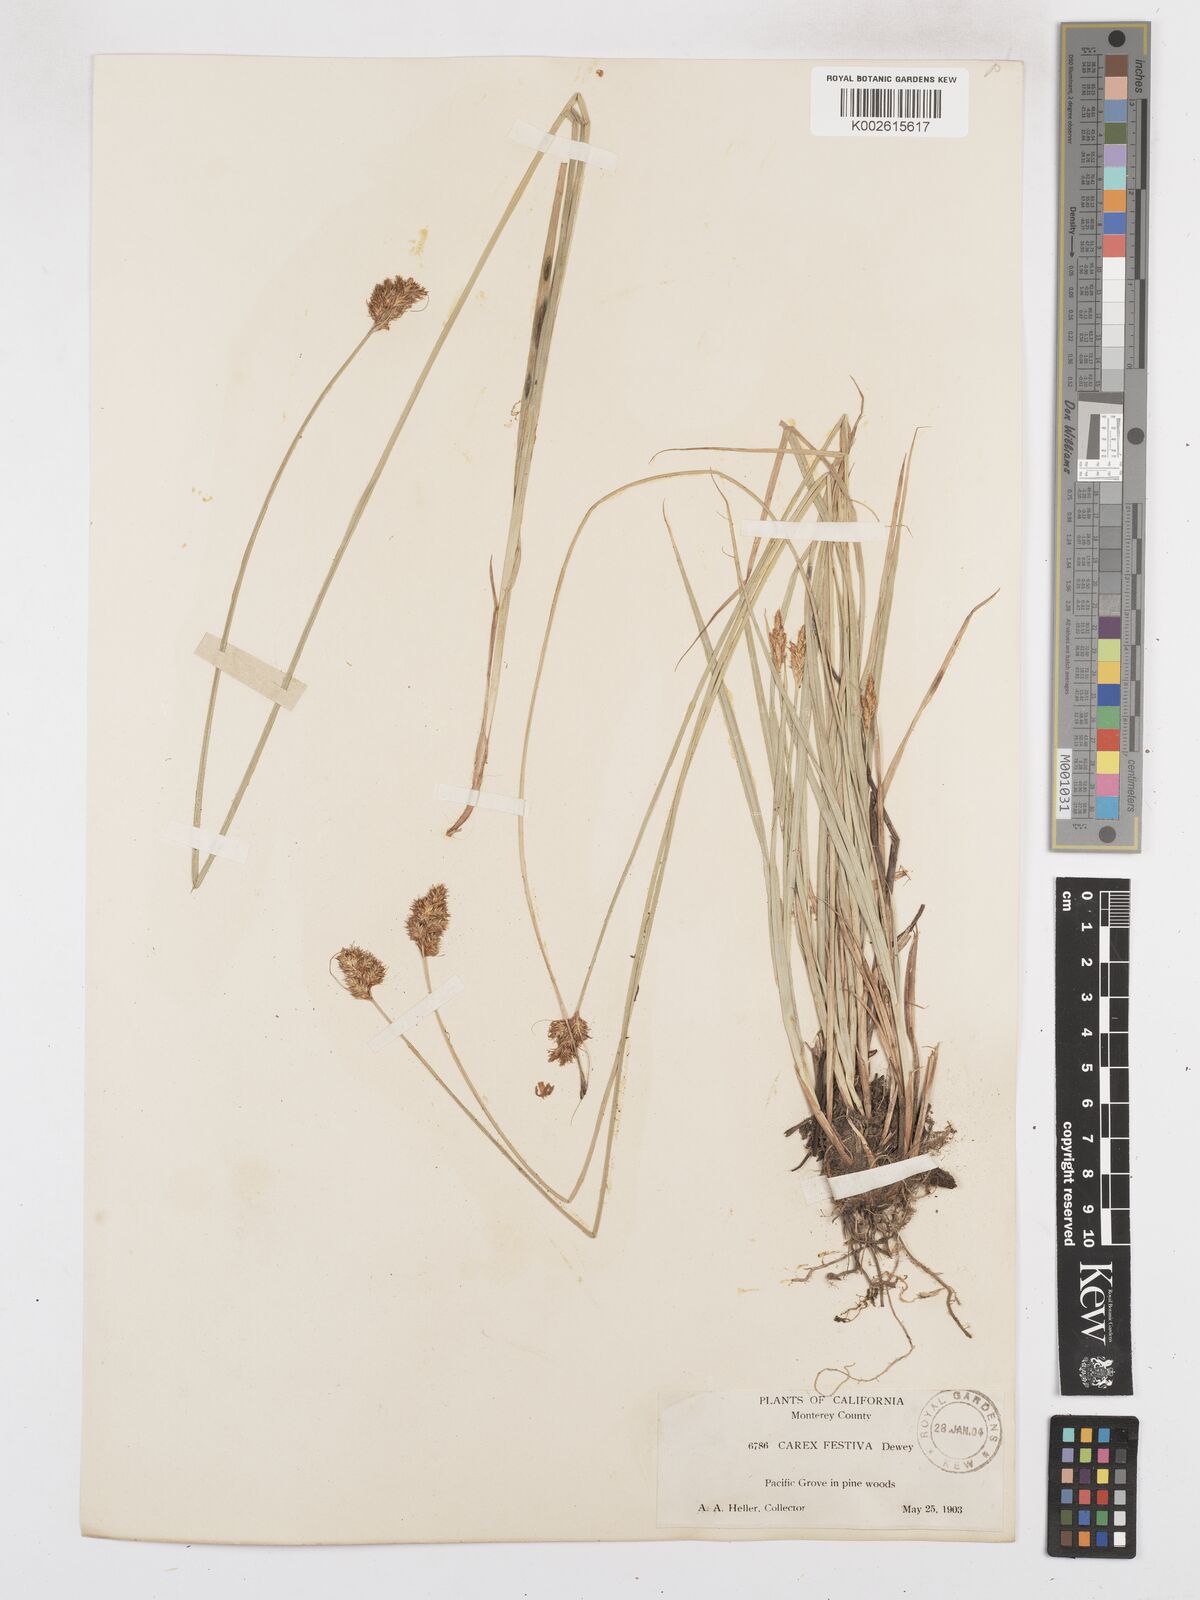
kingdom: Plantae
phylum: Tracheophyta
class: Liliopsida
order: Poales
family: Cyperaceae
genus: Carex
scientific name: Carex harfordii
